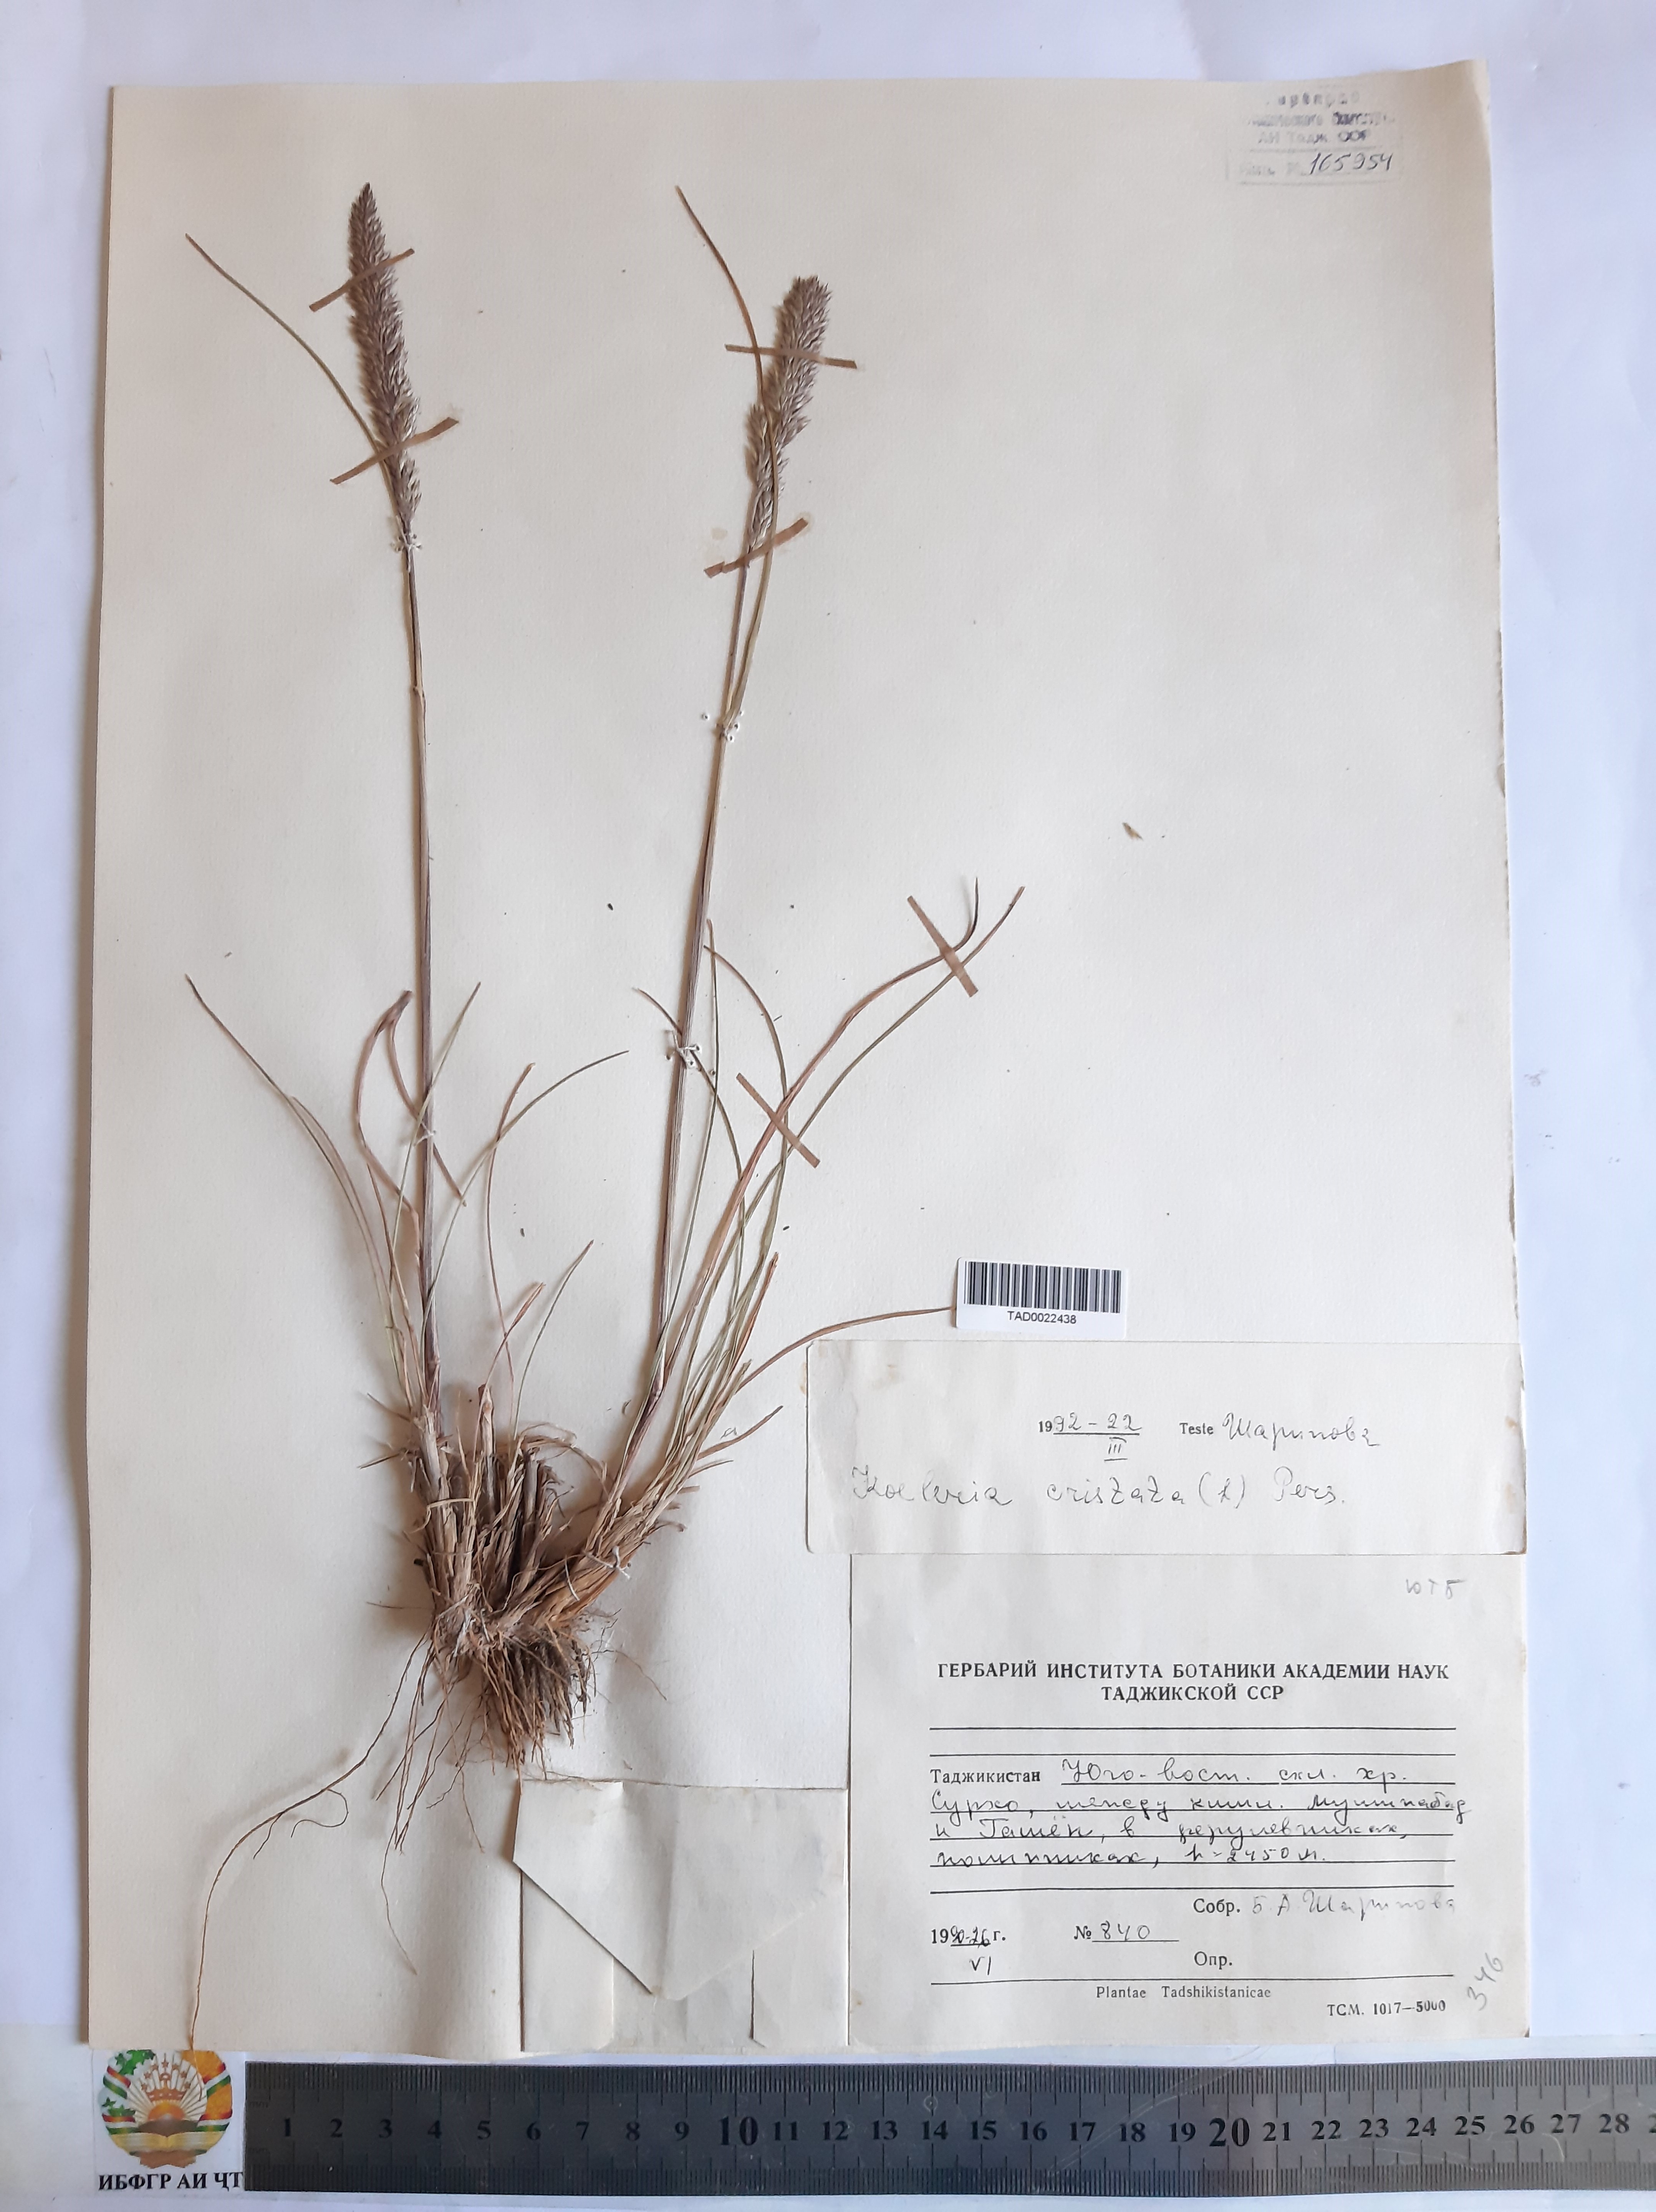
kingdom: Plantae
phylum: Tracheophyta
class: Liliopsida
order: Poales
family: Poaceae
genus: Koeleria
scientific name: Koeleria pyramidata
